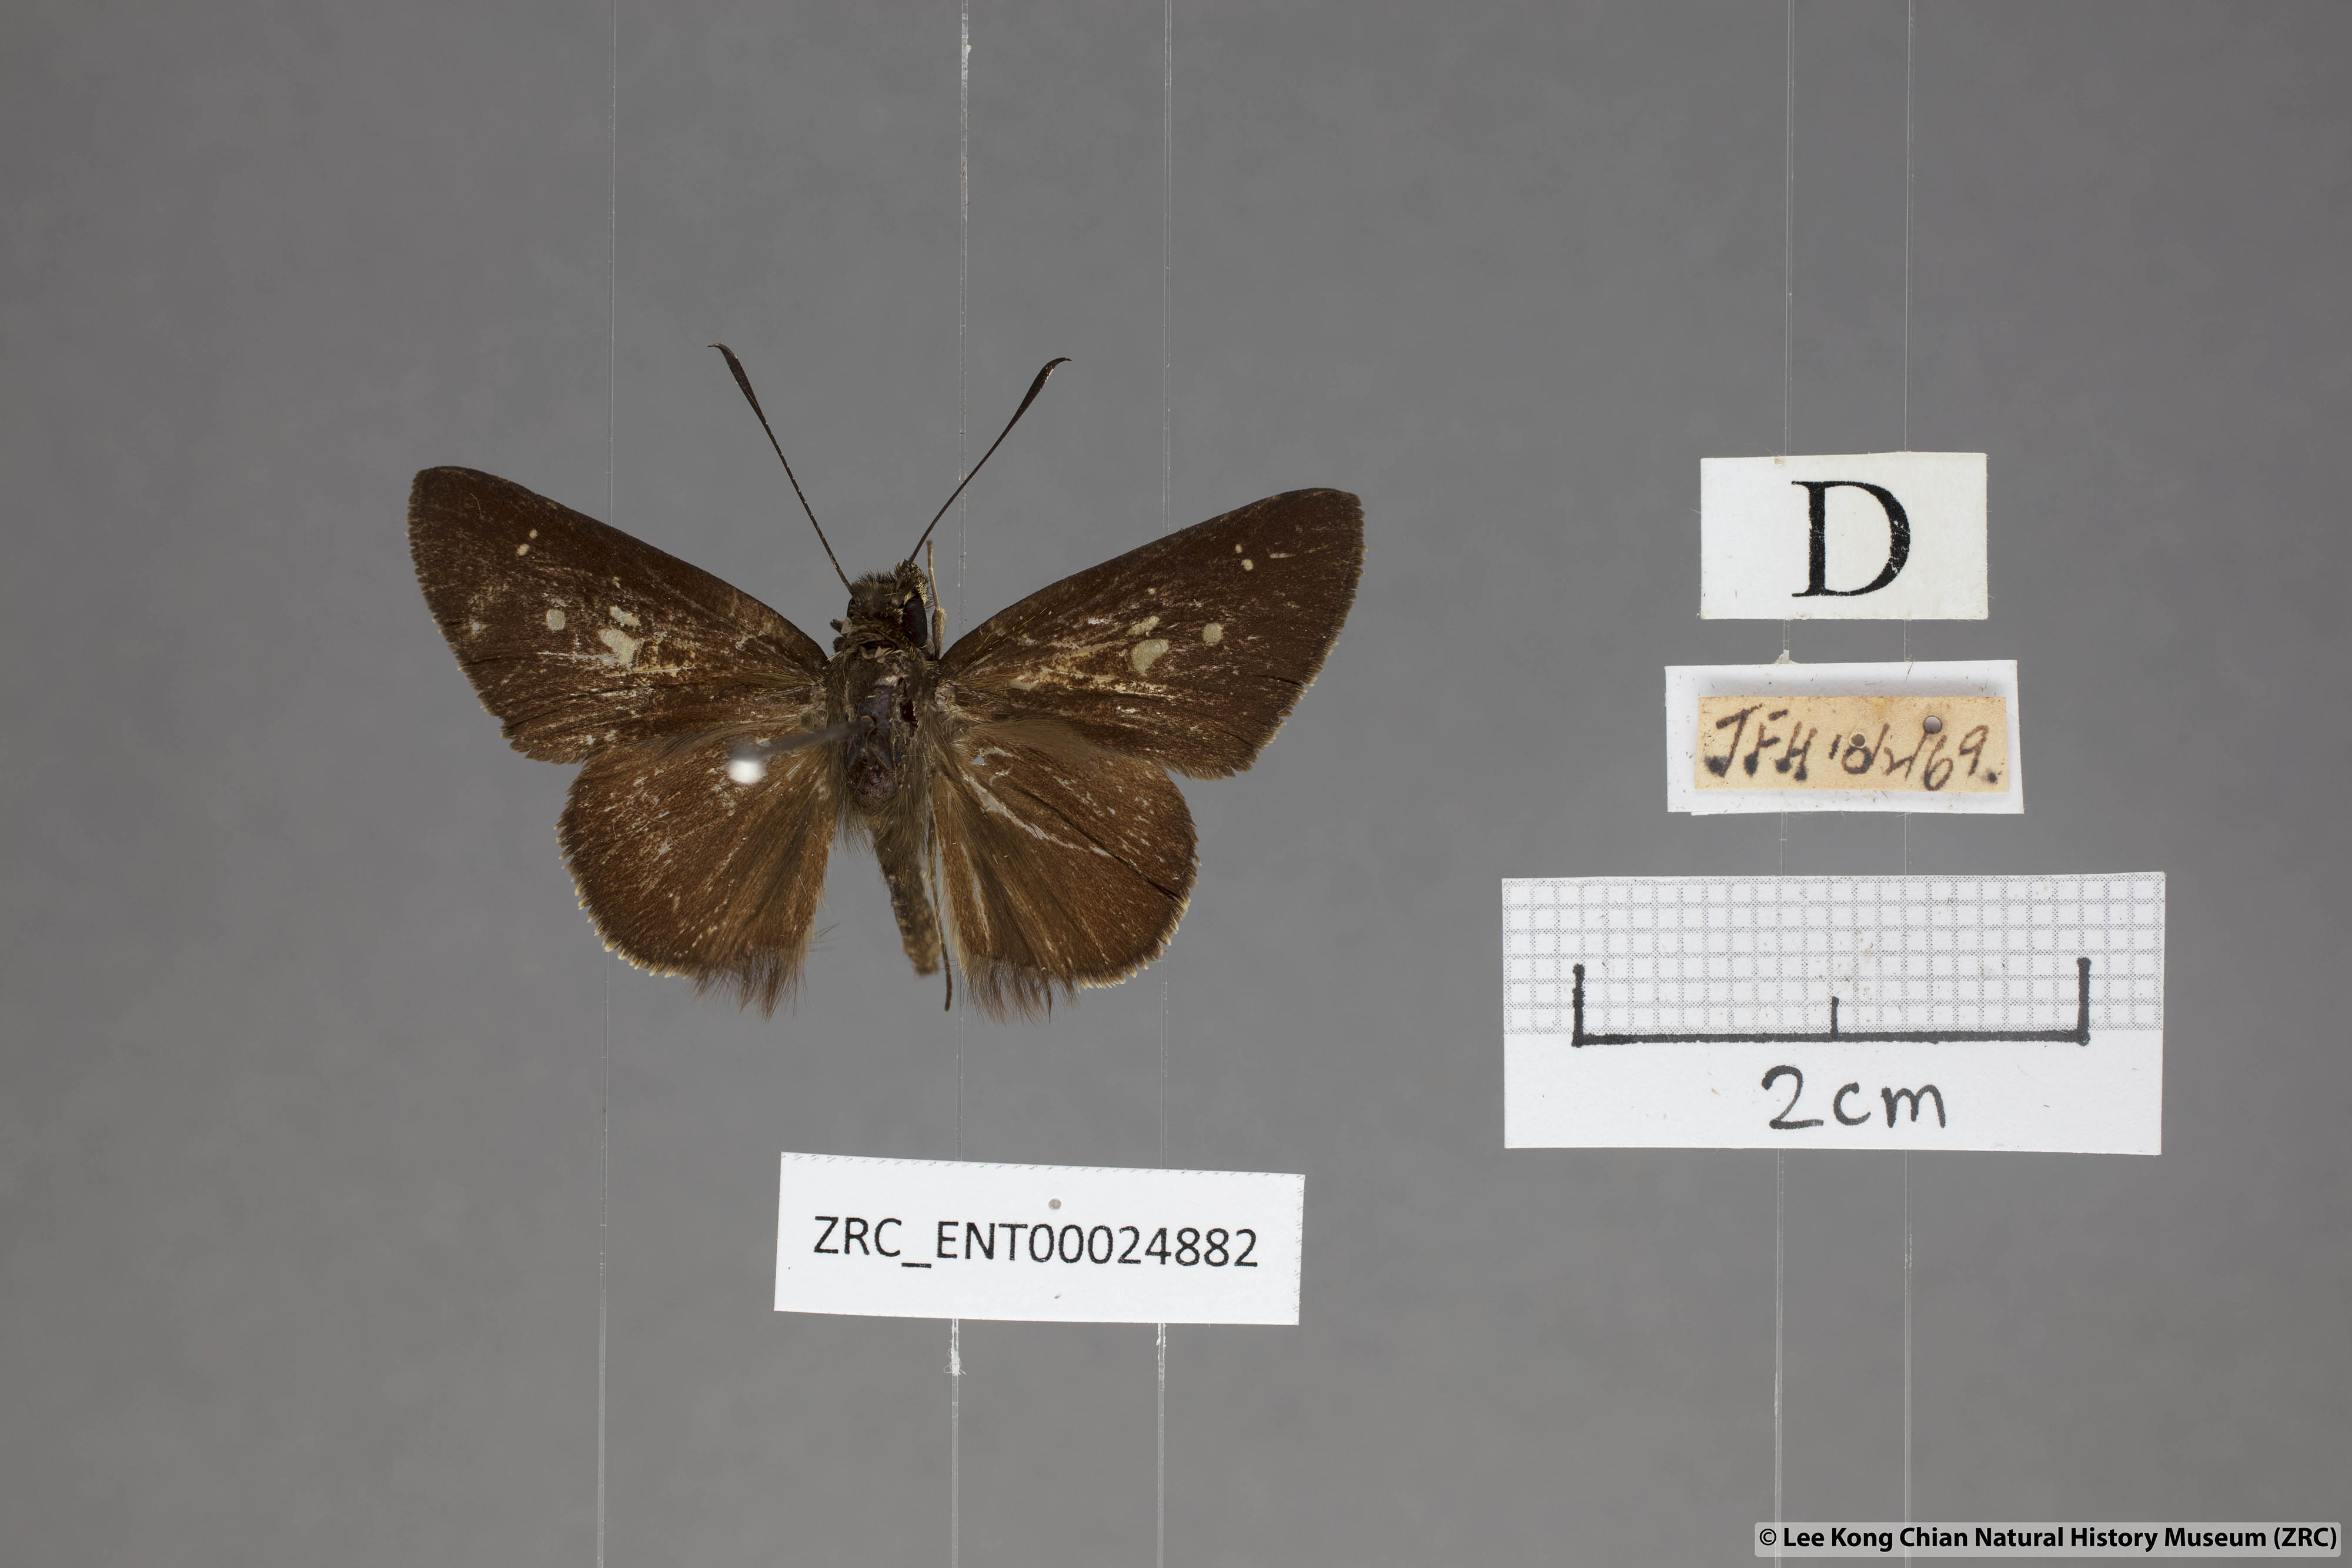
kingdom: Animalia
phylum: Arthropoda
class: Insecta
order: Lepidoptera
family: Hesperiidae
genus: Isma
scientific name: Isma protoclea
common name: Bicolour long-horned flitter
